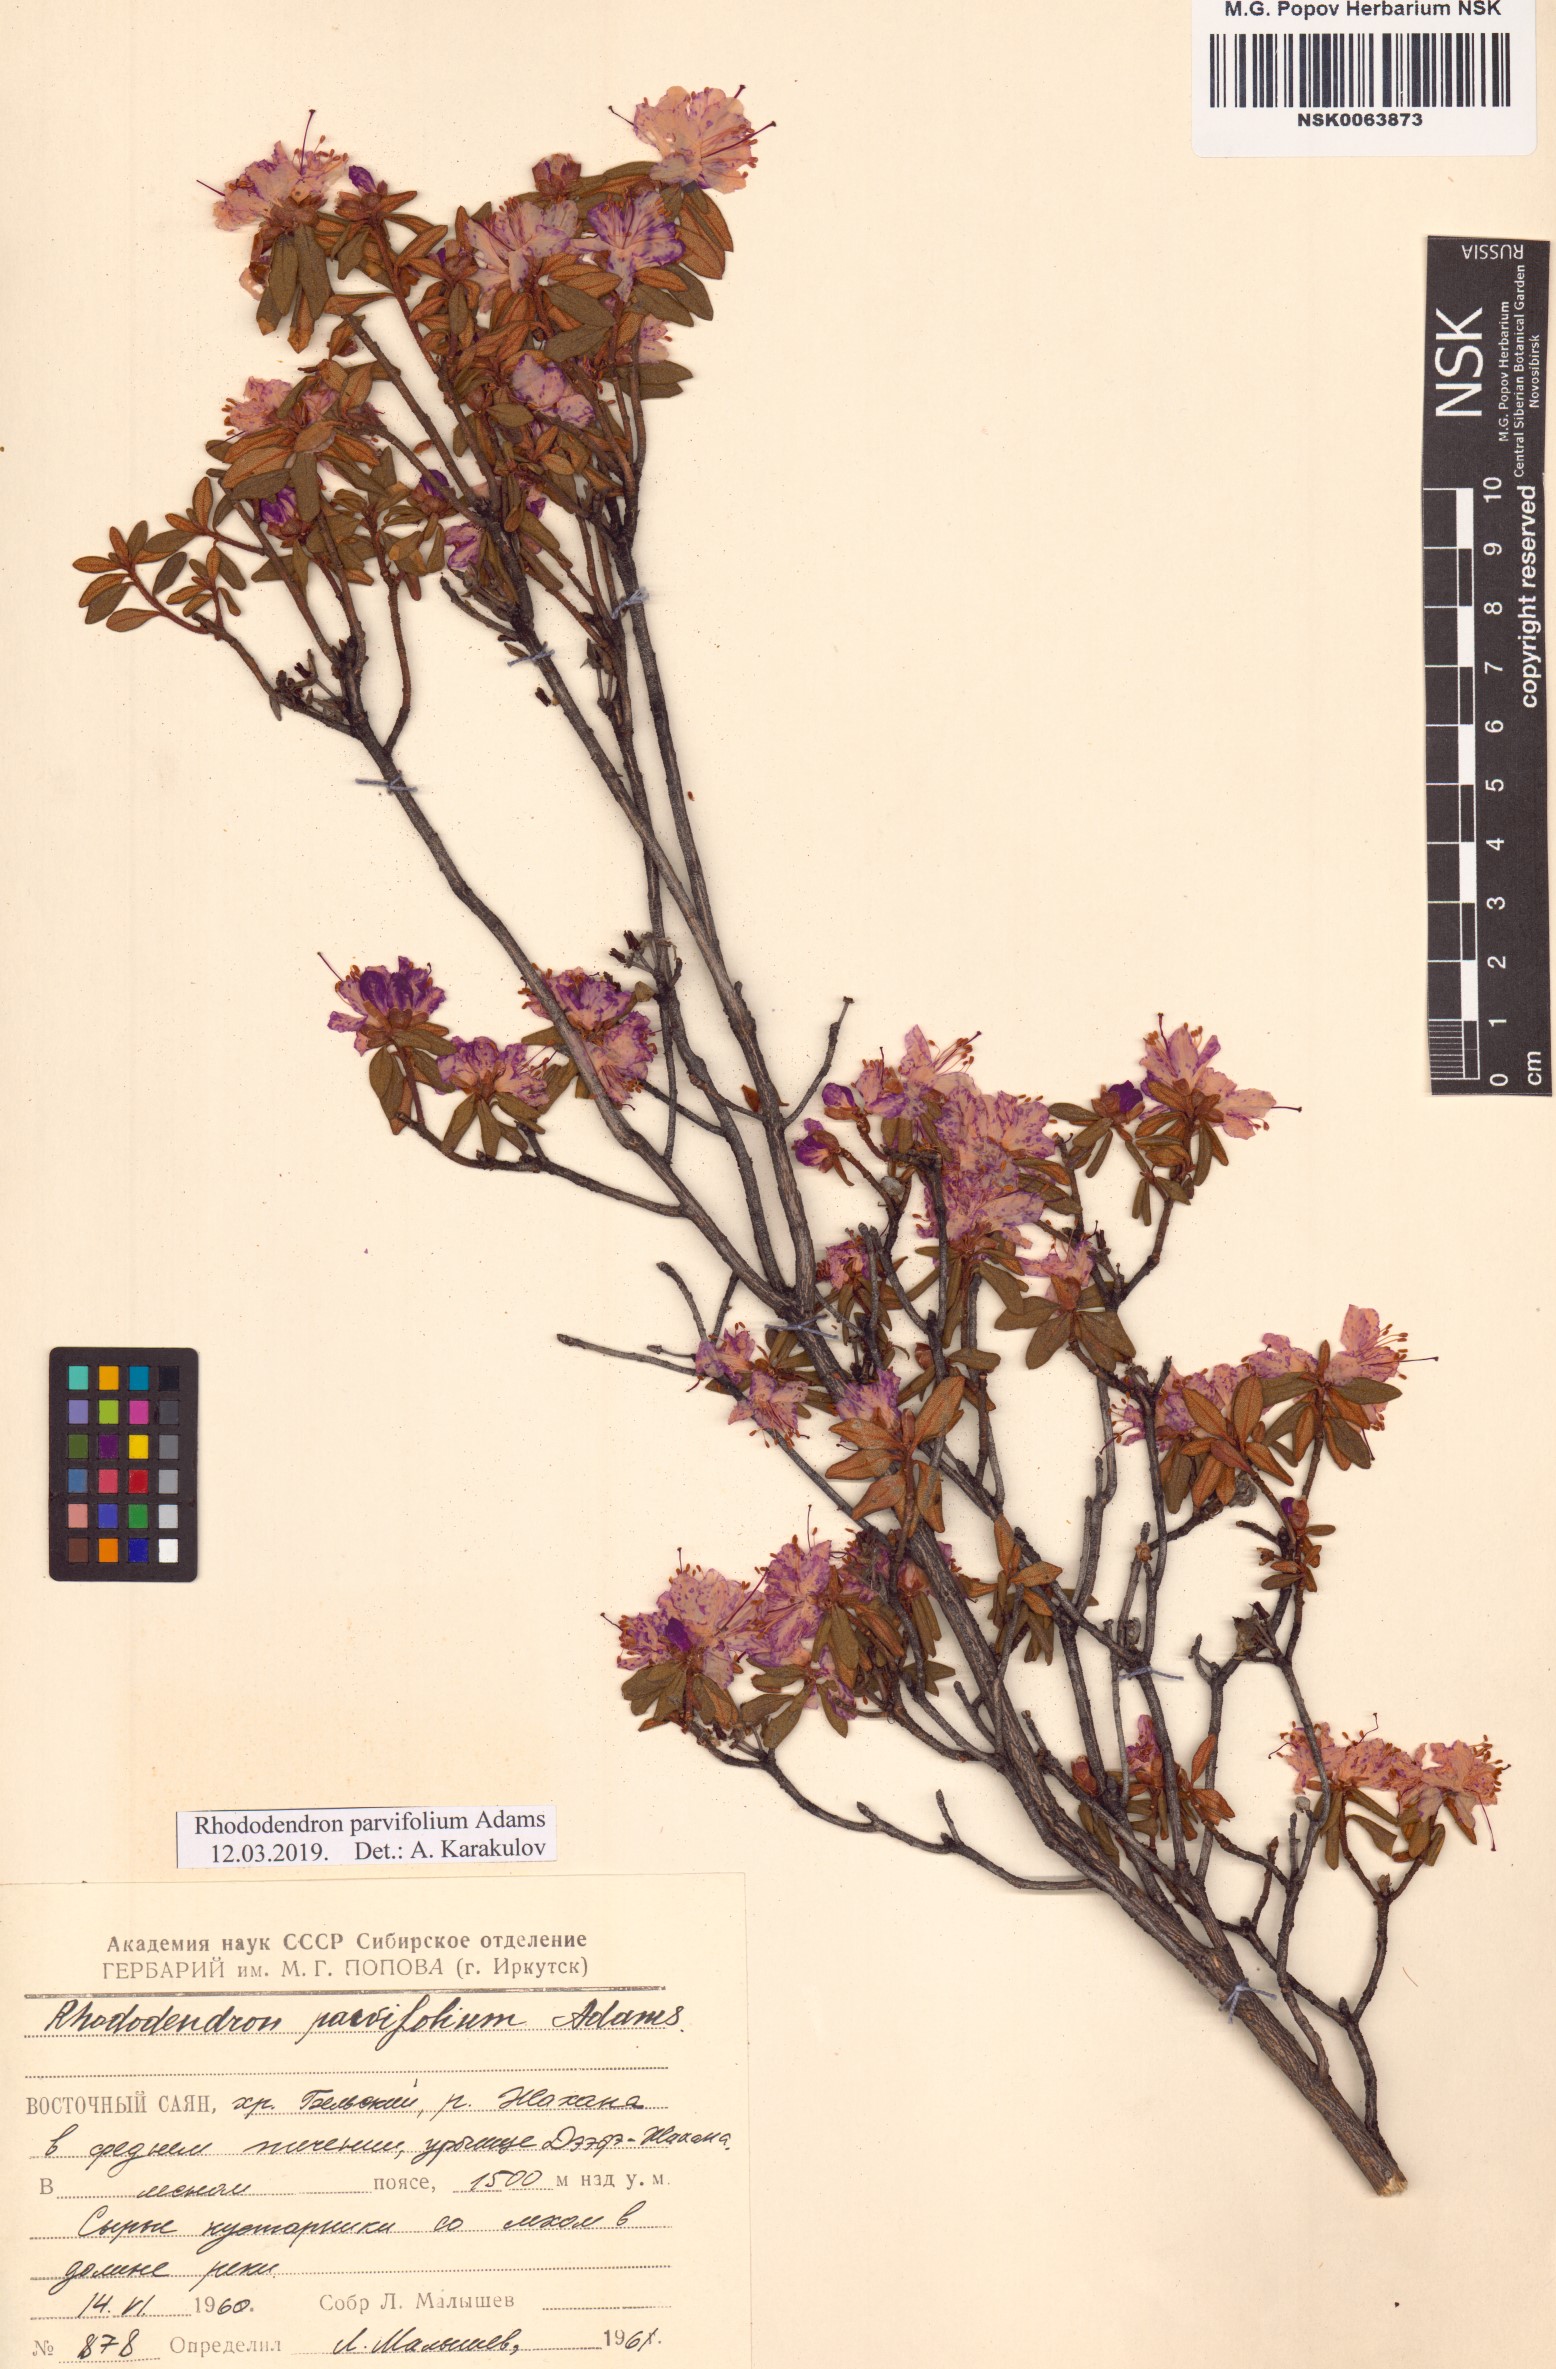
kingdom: Plantae
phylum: Tracheophyta
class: Magnoliopsida
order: Ericales
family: Ericaceae
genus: Rhododendron
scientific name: Rhododendron parvifolium
